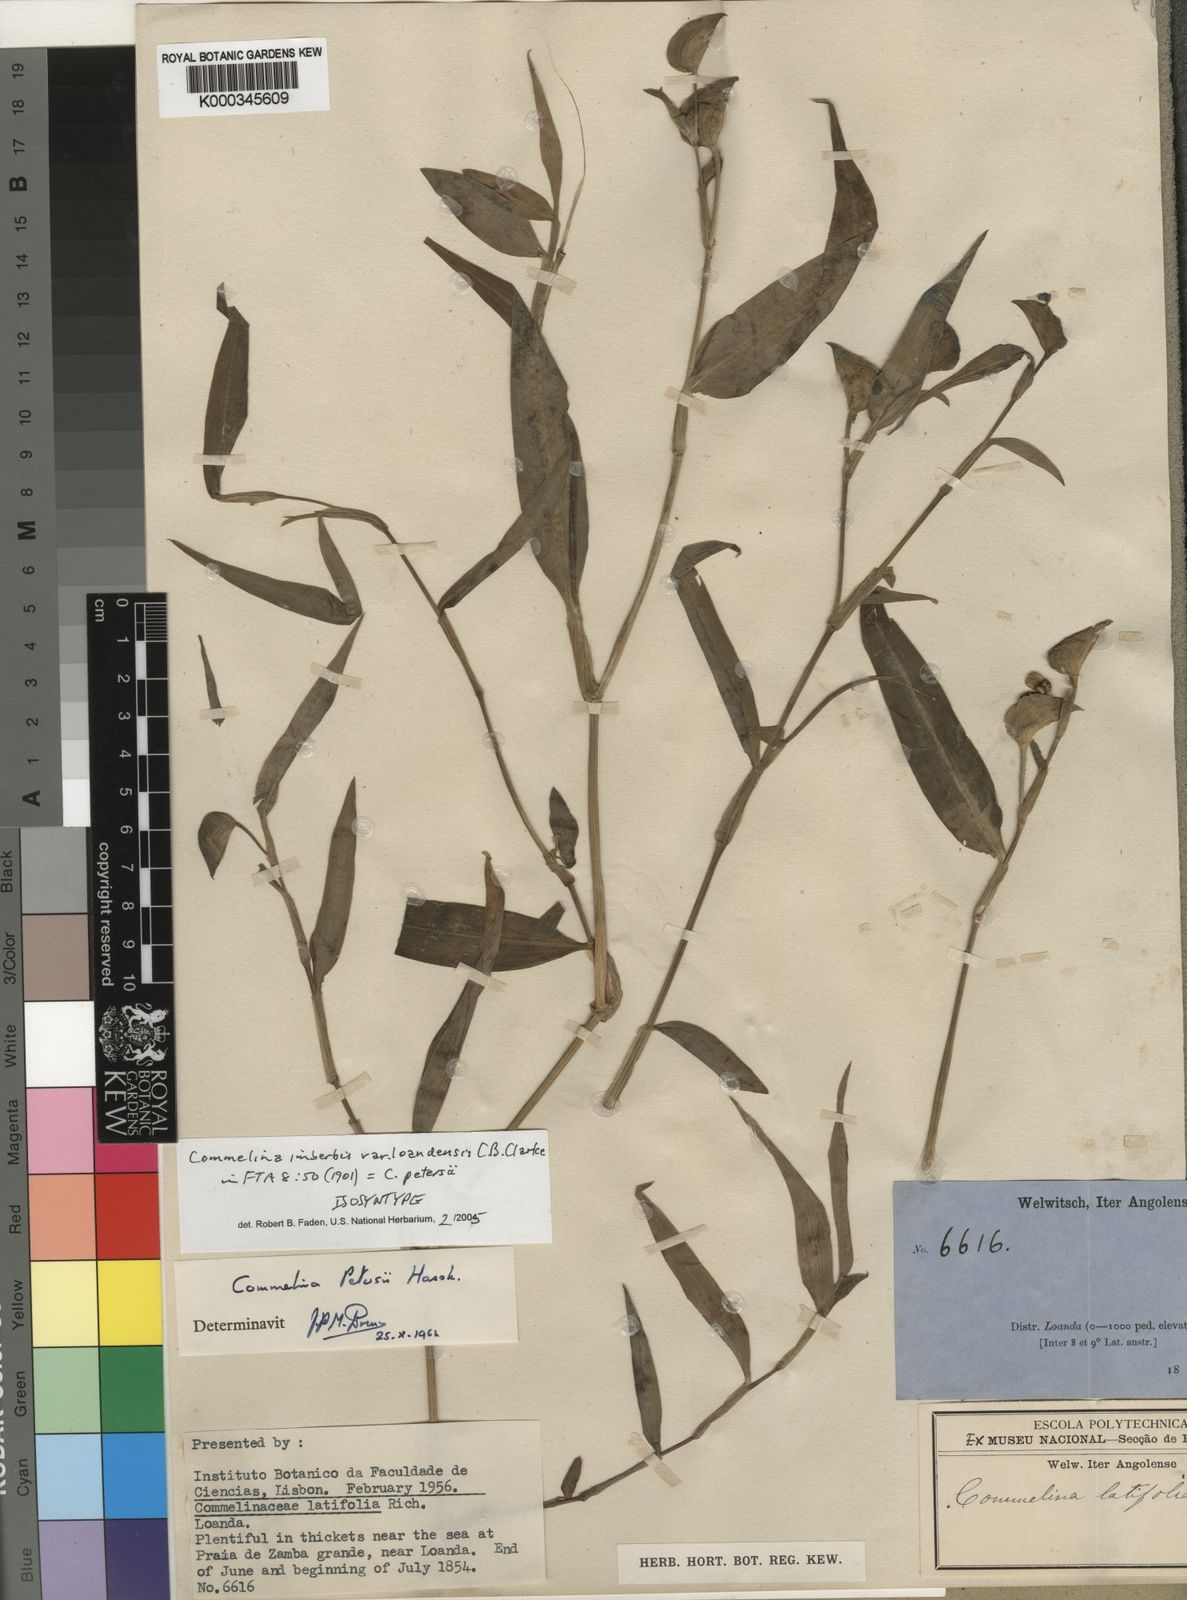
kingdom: Plantae
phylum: Tracheophyta
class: Liliopsida
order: Commelinales
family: Commelinaceae
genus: Commelina
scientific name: Commelina imberbis
